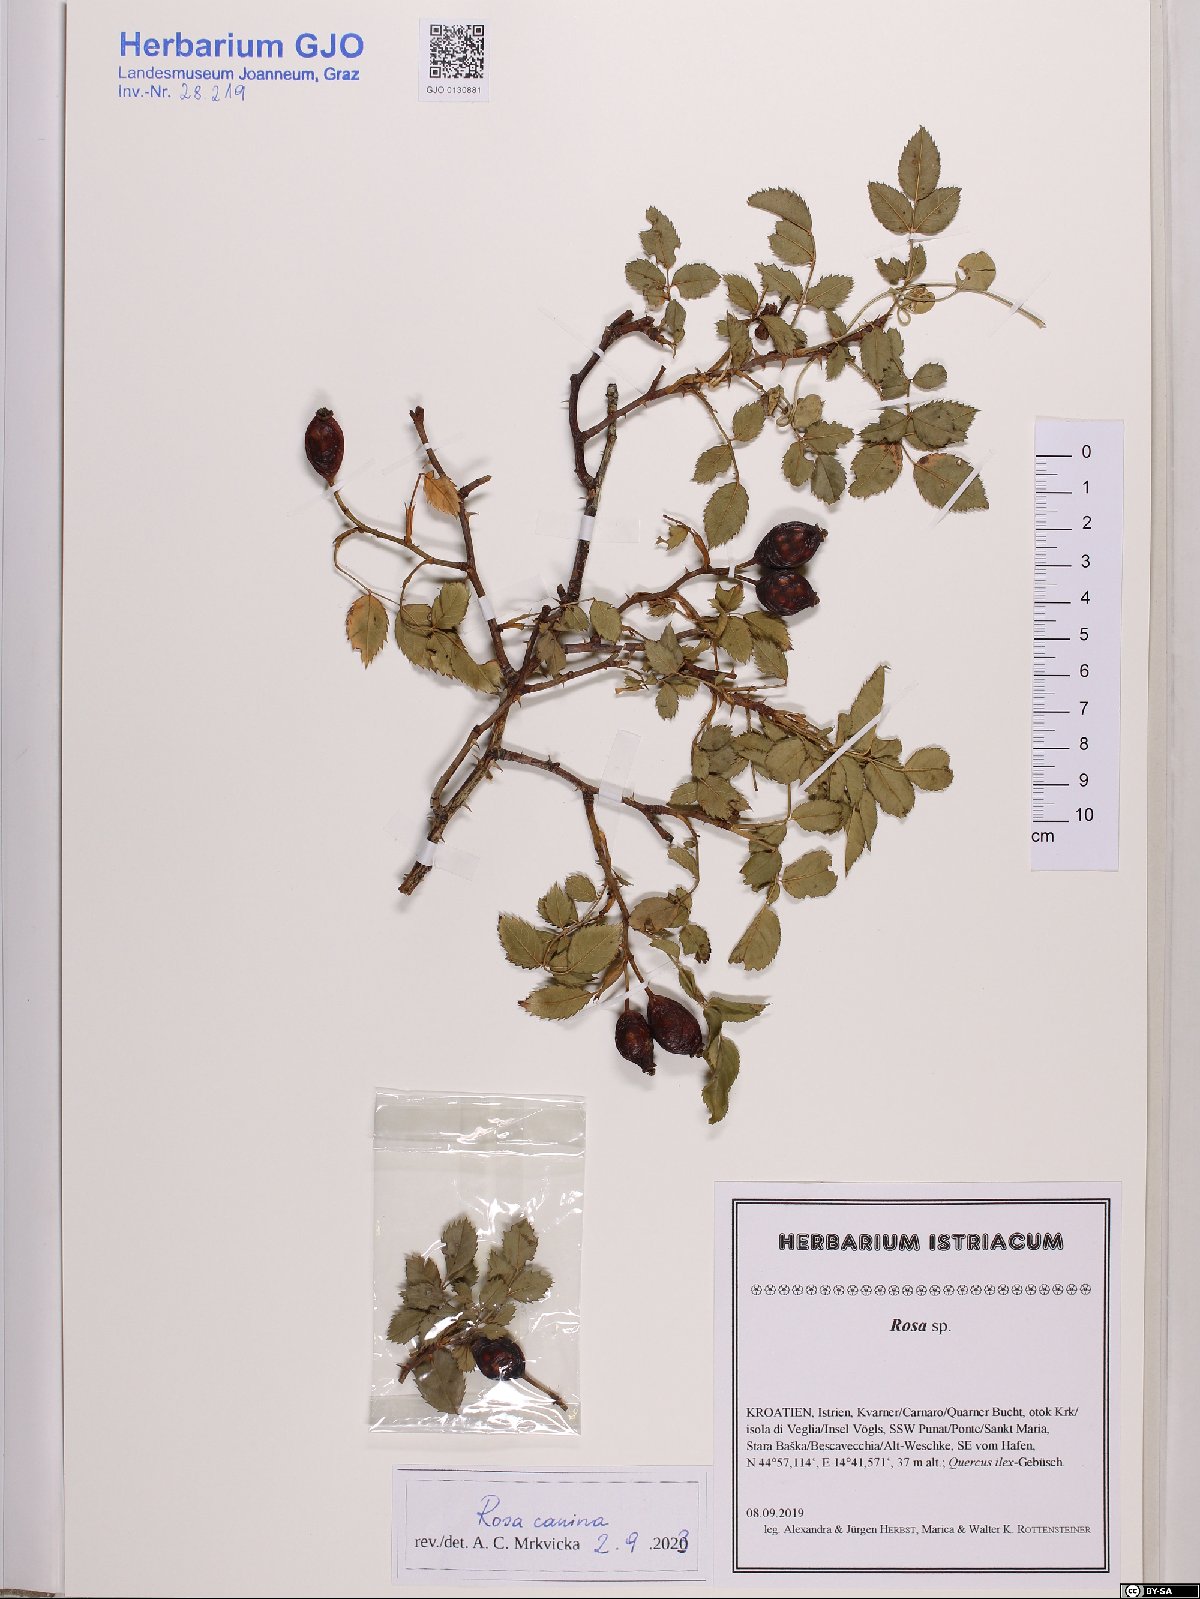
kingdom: Plantae
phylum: Tracheophyta
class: Magnoliopsida
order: Rosales
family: Rosaceae
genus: Rosa
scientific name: Rosa canina
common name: Dog rose
